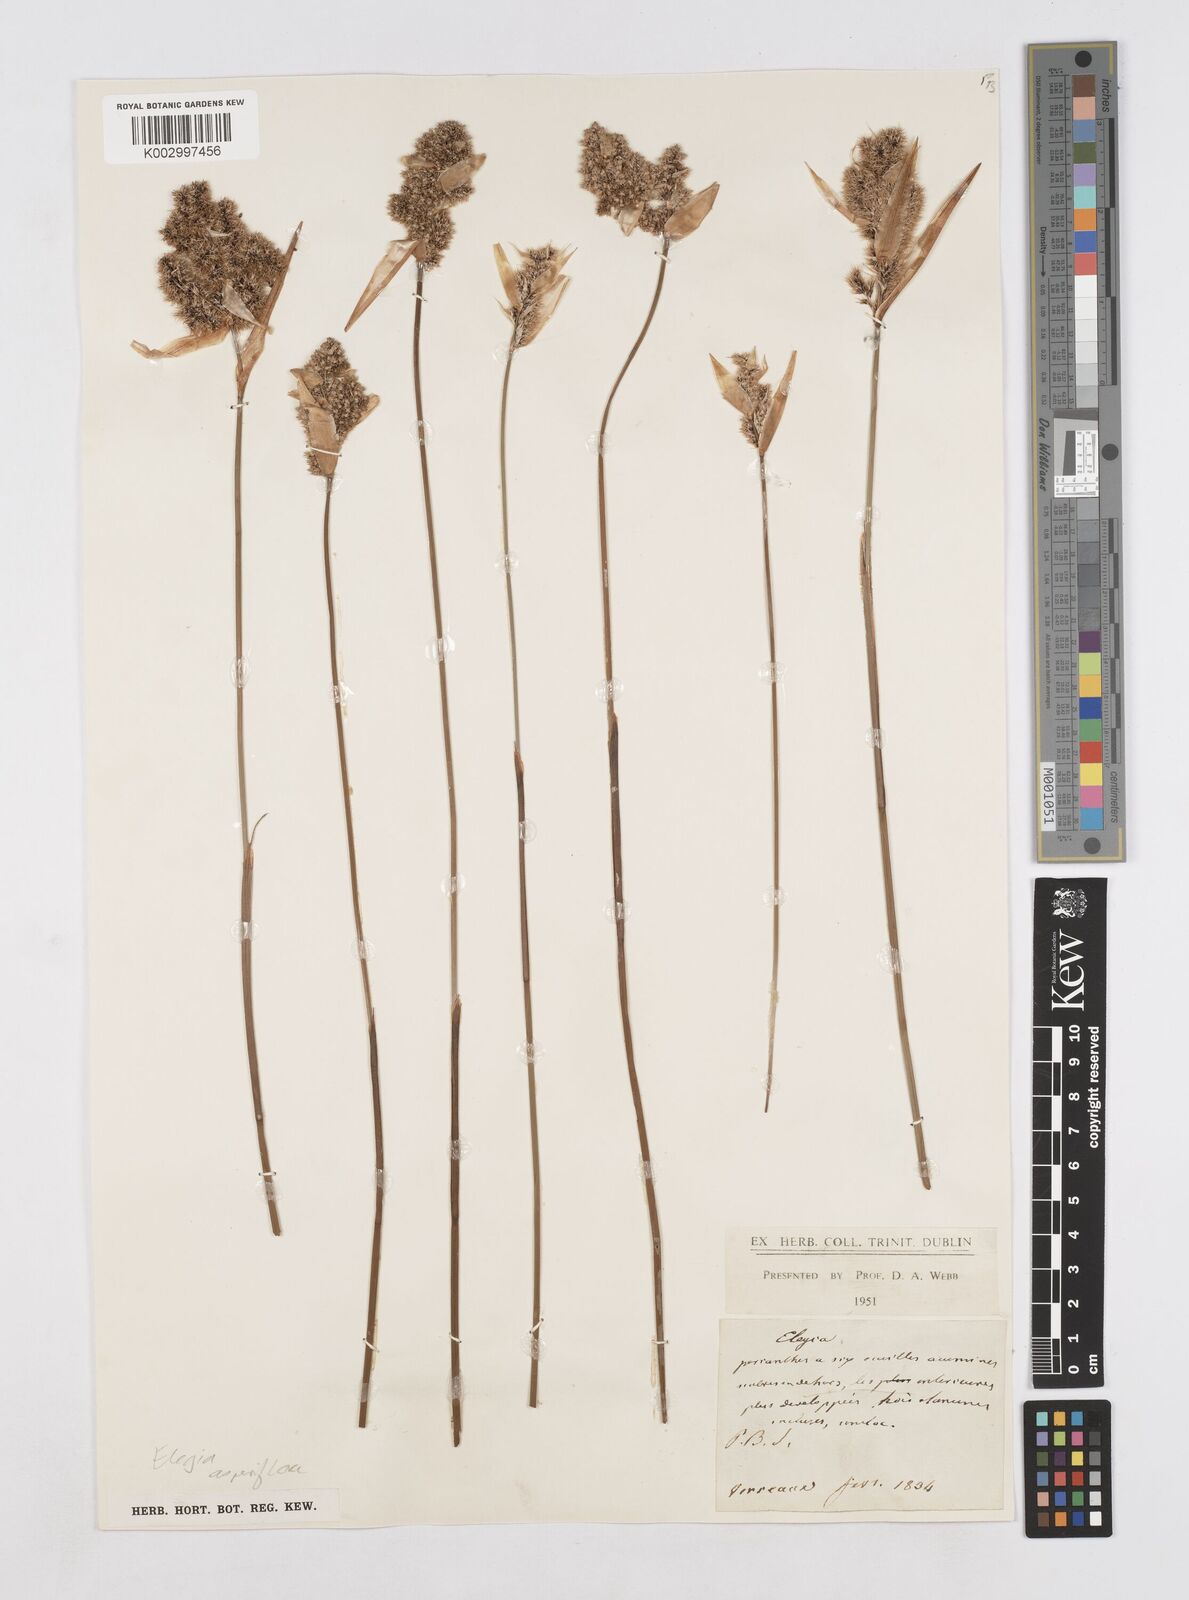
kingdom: Plantae
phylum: Tracheophyta
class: Liliopsida
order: Poales
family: Restionaceae
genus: Elegia
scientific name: Elegia asperiflora
